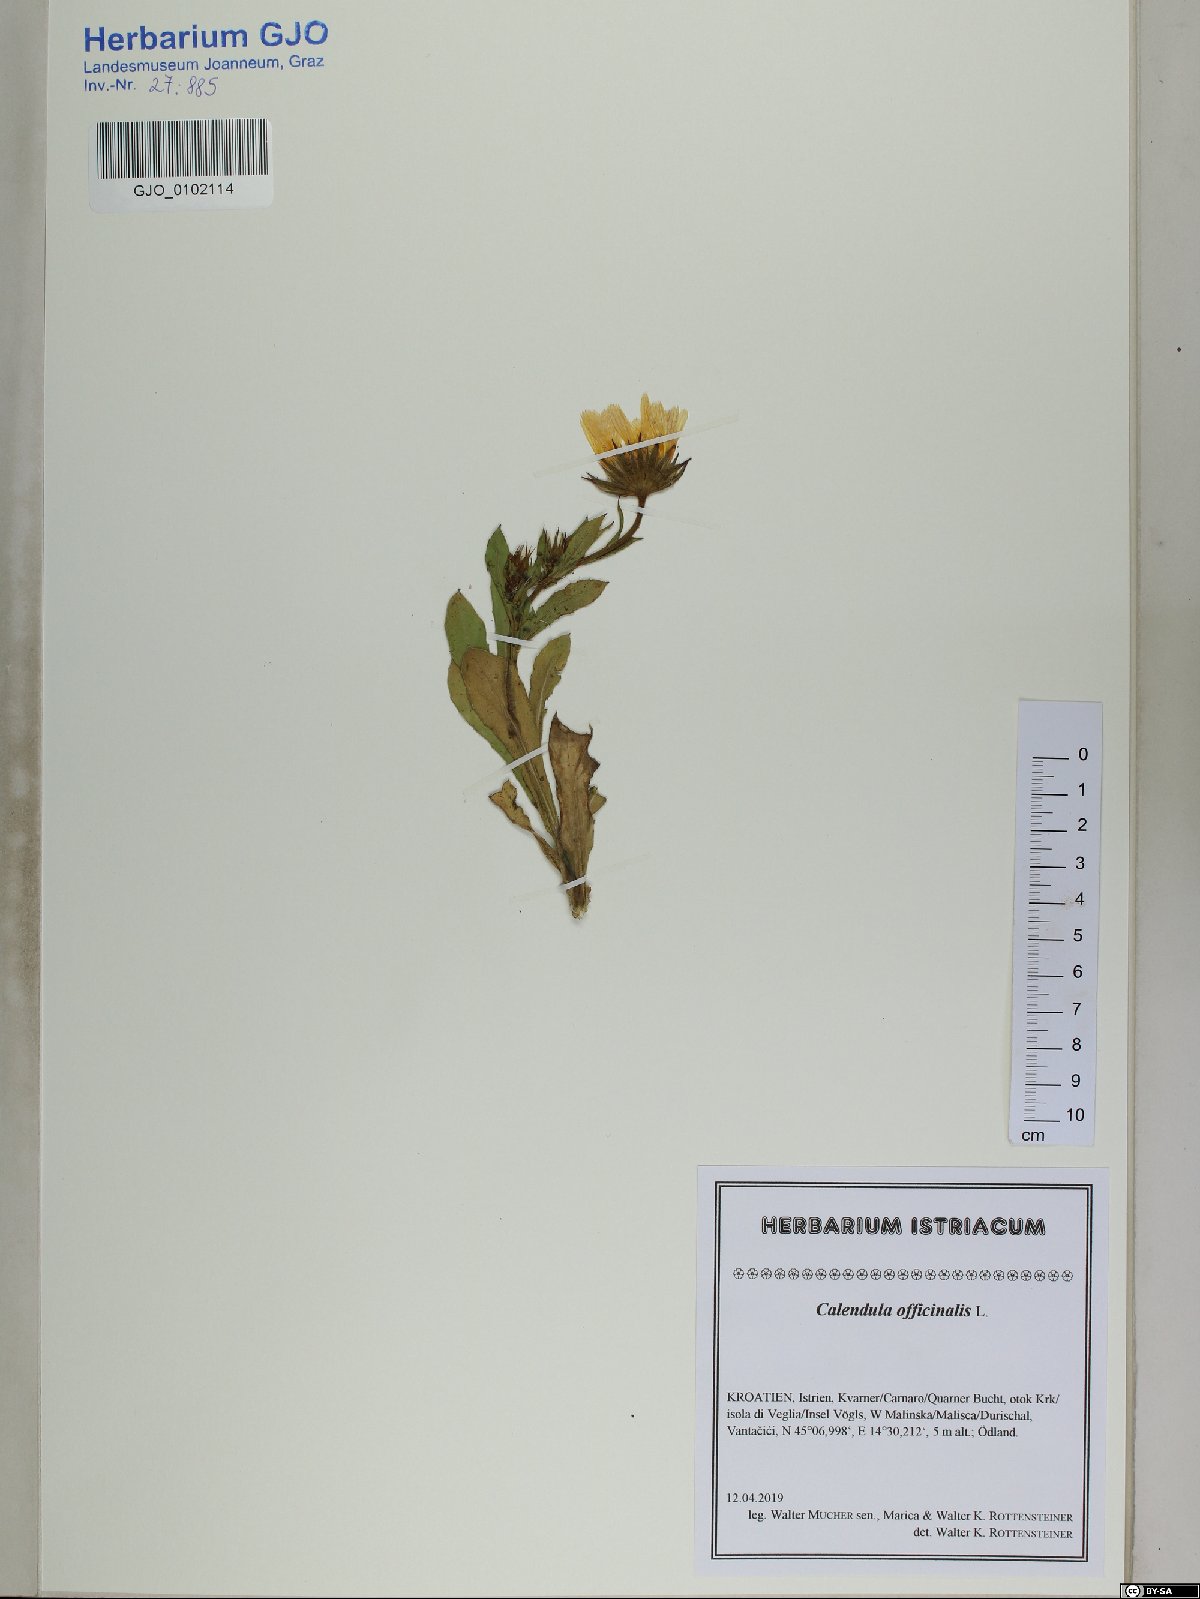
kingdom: Plantae
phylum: Tracheophyta
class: Magnoliopsida
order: Asterales
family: Asteraceae
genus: Calendula
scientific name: Calendula officinalis
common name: Pot marigold
